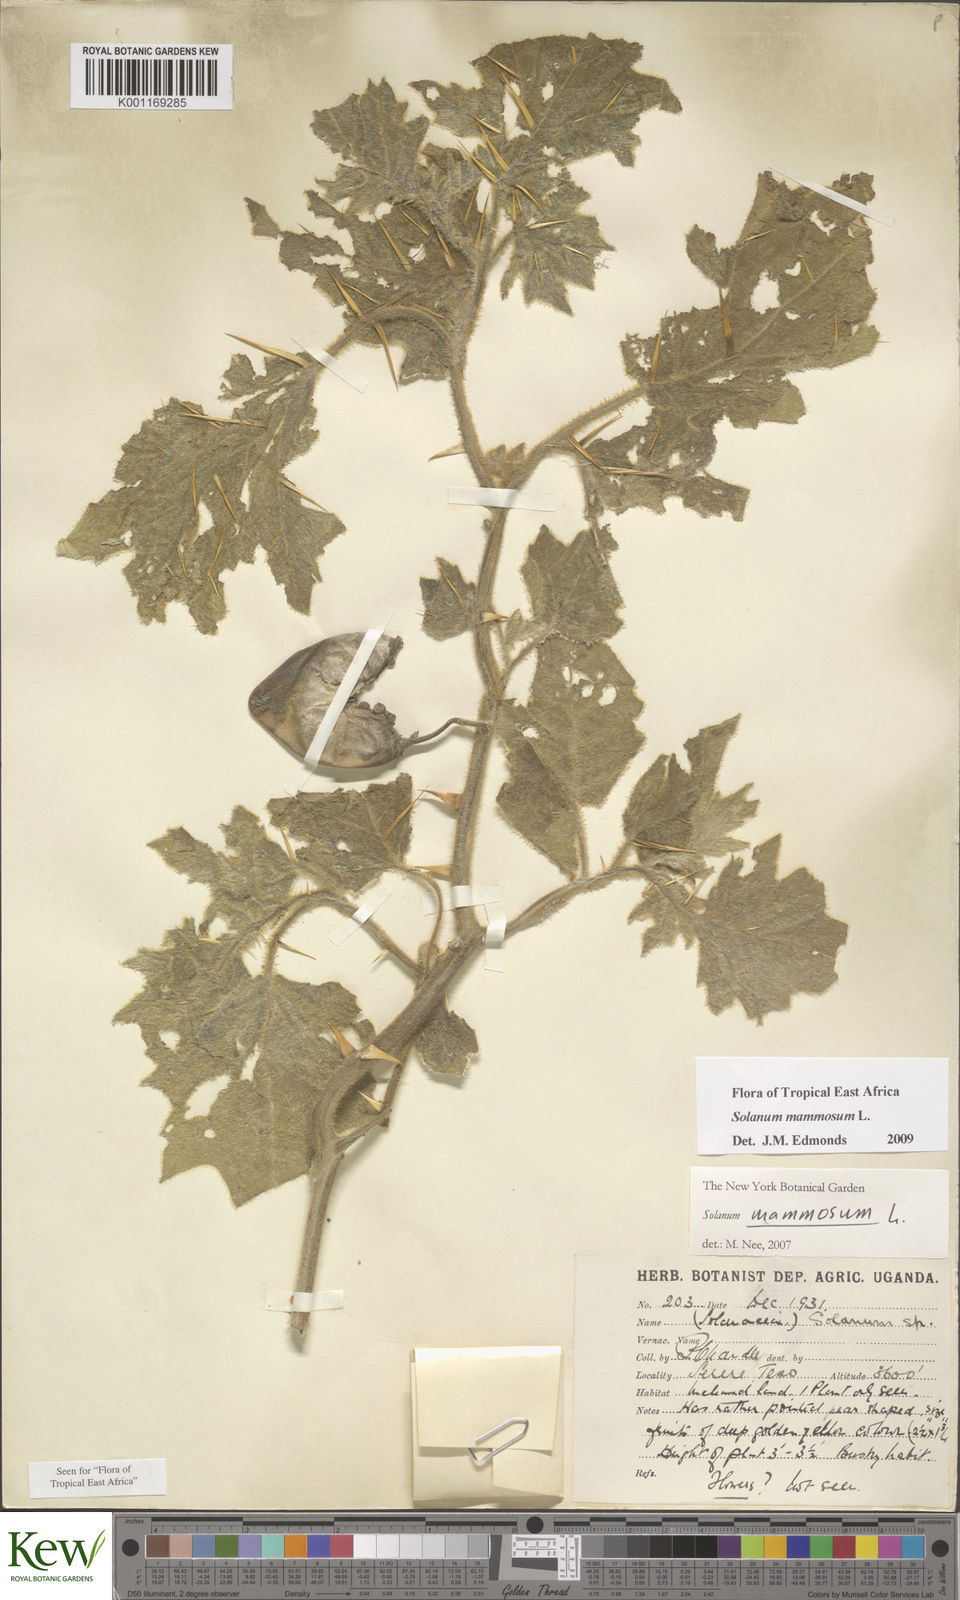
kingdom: Plantae
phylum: Tracheophyta
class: Magnoliopsida
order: Solanales
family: Solanaceae
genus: Solanum
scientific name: Solanum mammosum
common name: Nipple fruit
